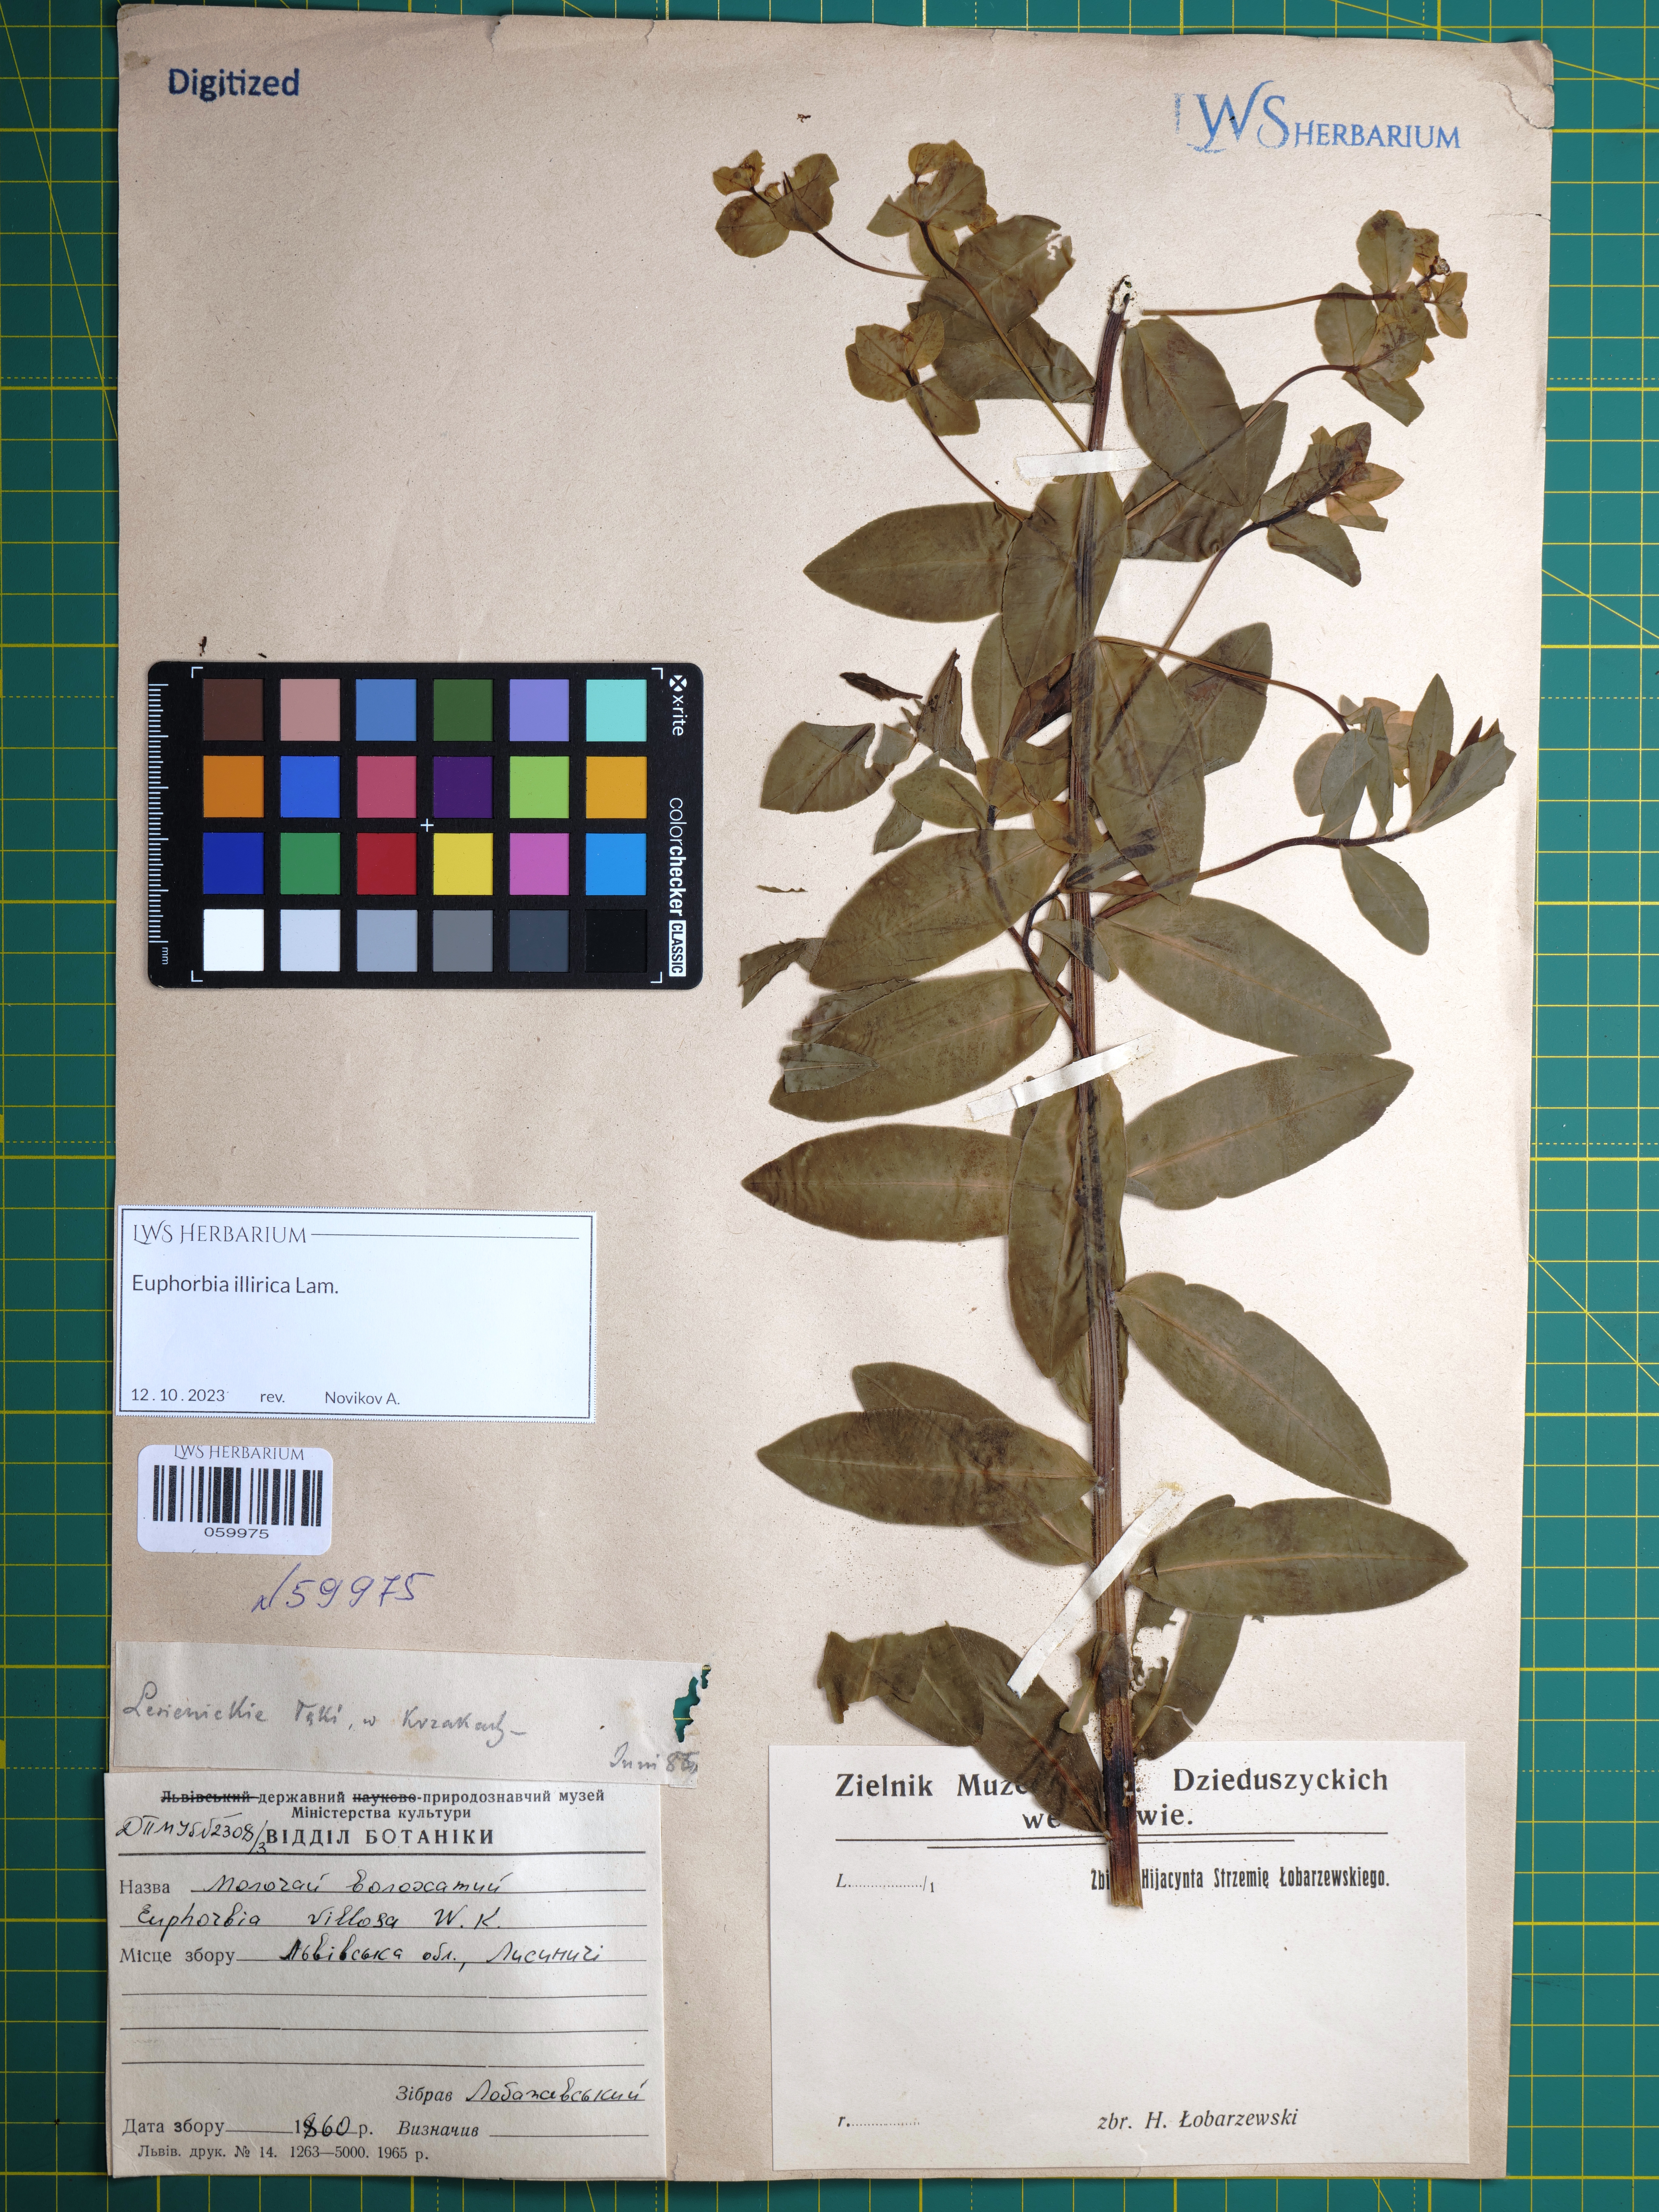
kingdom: Plantae
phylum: Tracheophyta
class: Magnoliopsida
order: Malpighiales
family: Euphorbiaceae
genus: Euphorbia
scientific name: Euphorbia illirica
